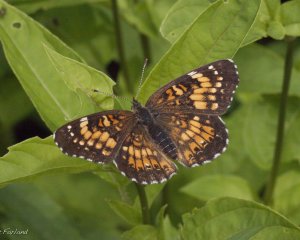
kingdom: Animalia
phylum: Arthropoda
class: Insecta
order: Lepidoptera
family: Nymphalidae
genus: Chlosyne
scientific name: Chlosyne harrisii
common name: Harris's Checkerspot
